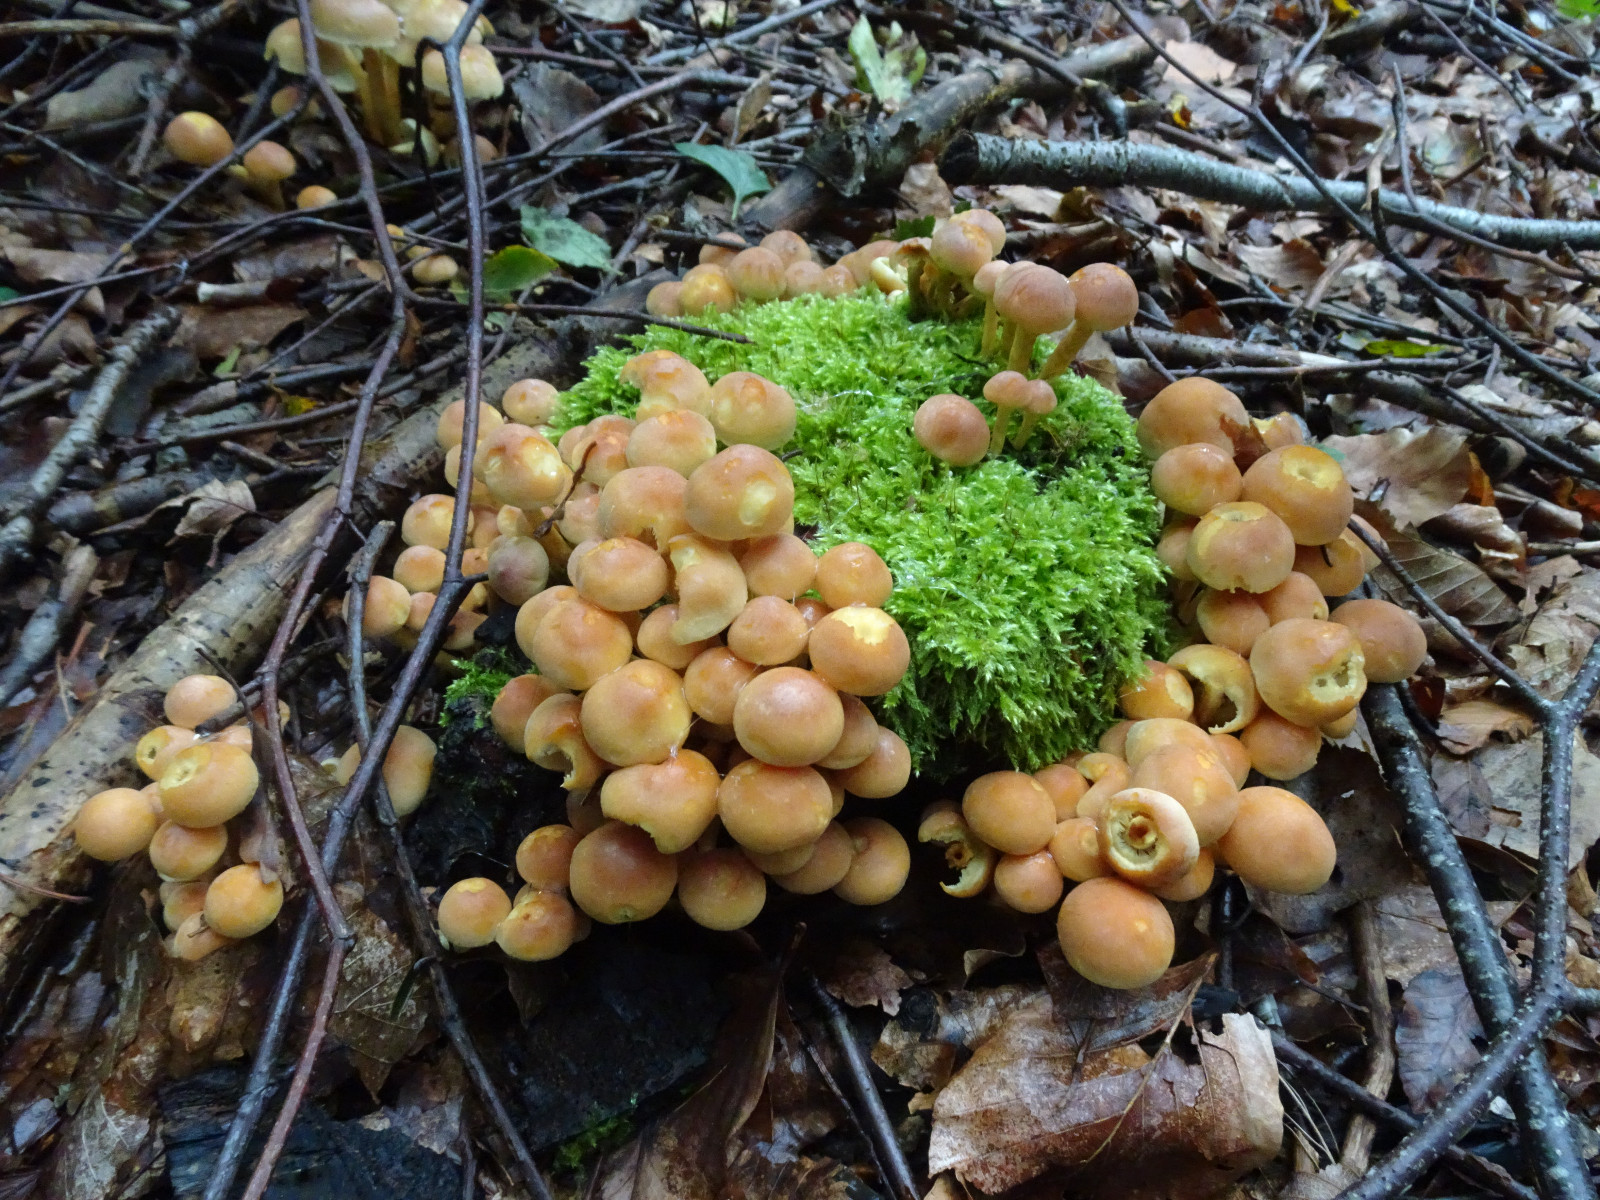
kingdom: Fungi
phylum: Basidiomycota
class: Agaricomycetes
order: Agaricales
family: Strophariaceae
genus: Hypholoma
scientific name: Hypholoma fasciculare
